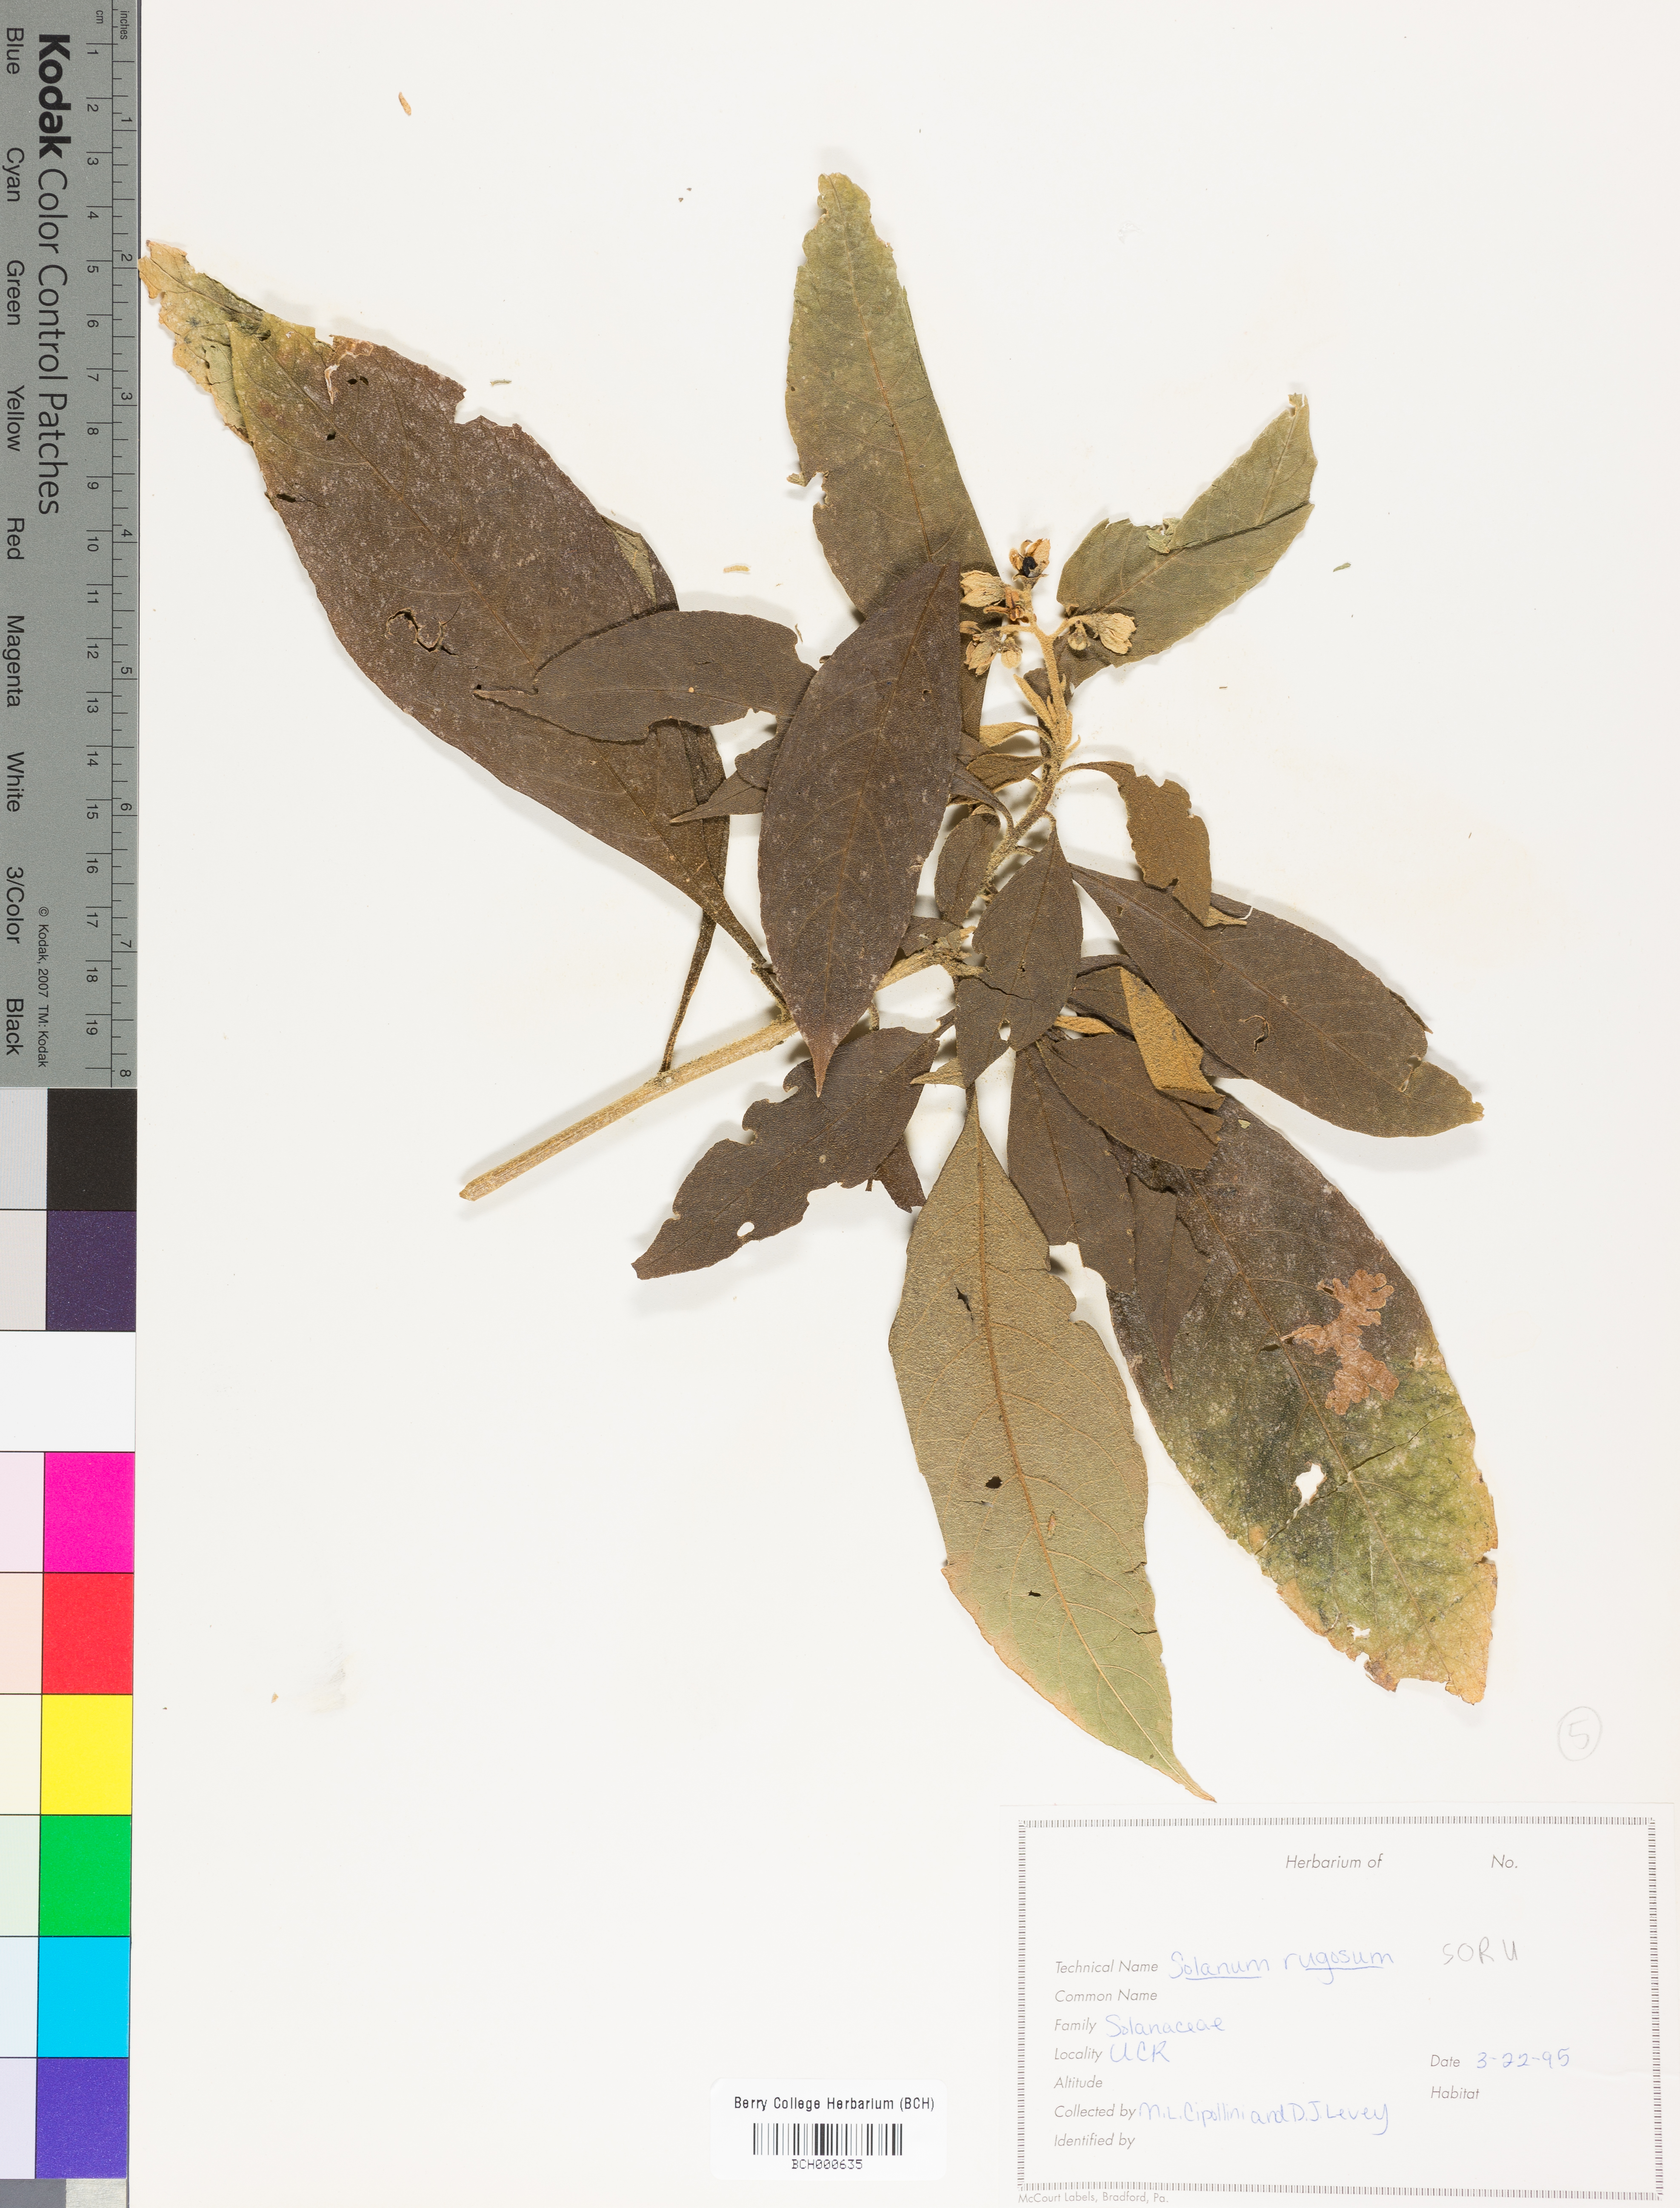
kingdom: Plantae
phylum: Tracheophyta
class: Magnoliopsida
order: Solanales
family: Solanaceae
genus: Solanum
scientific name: Solanum rugosum
